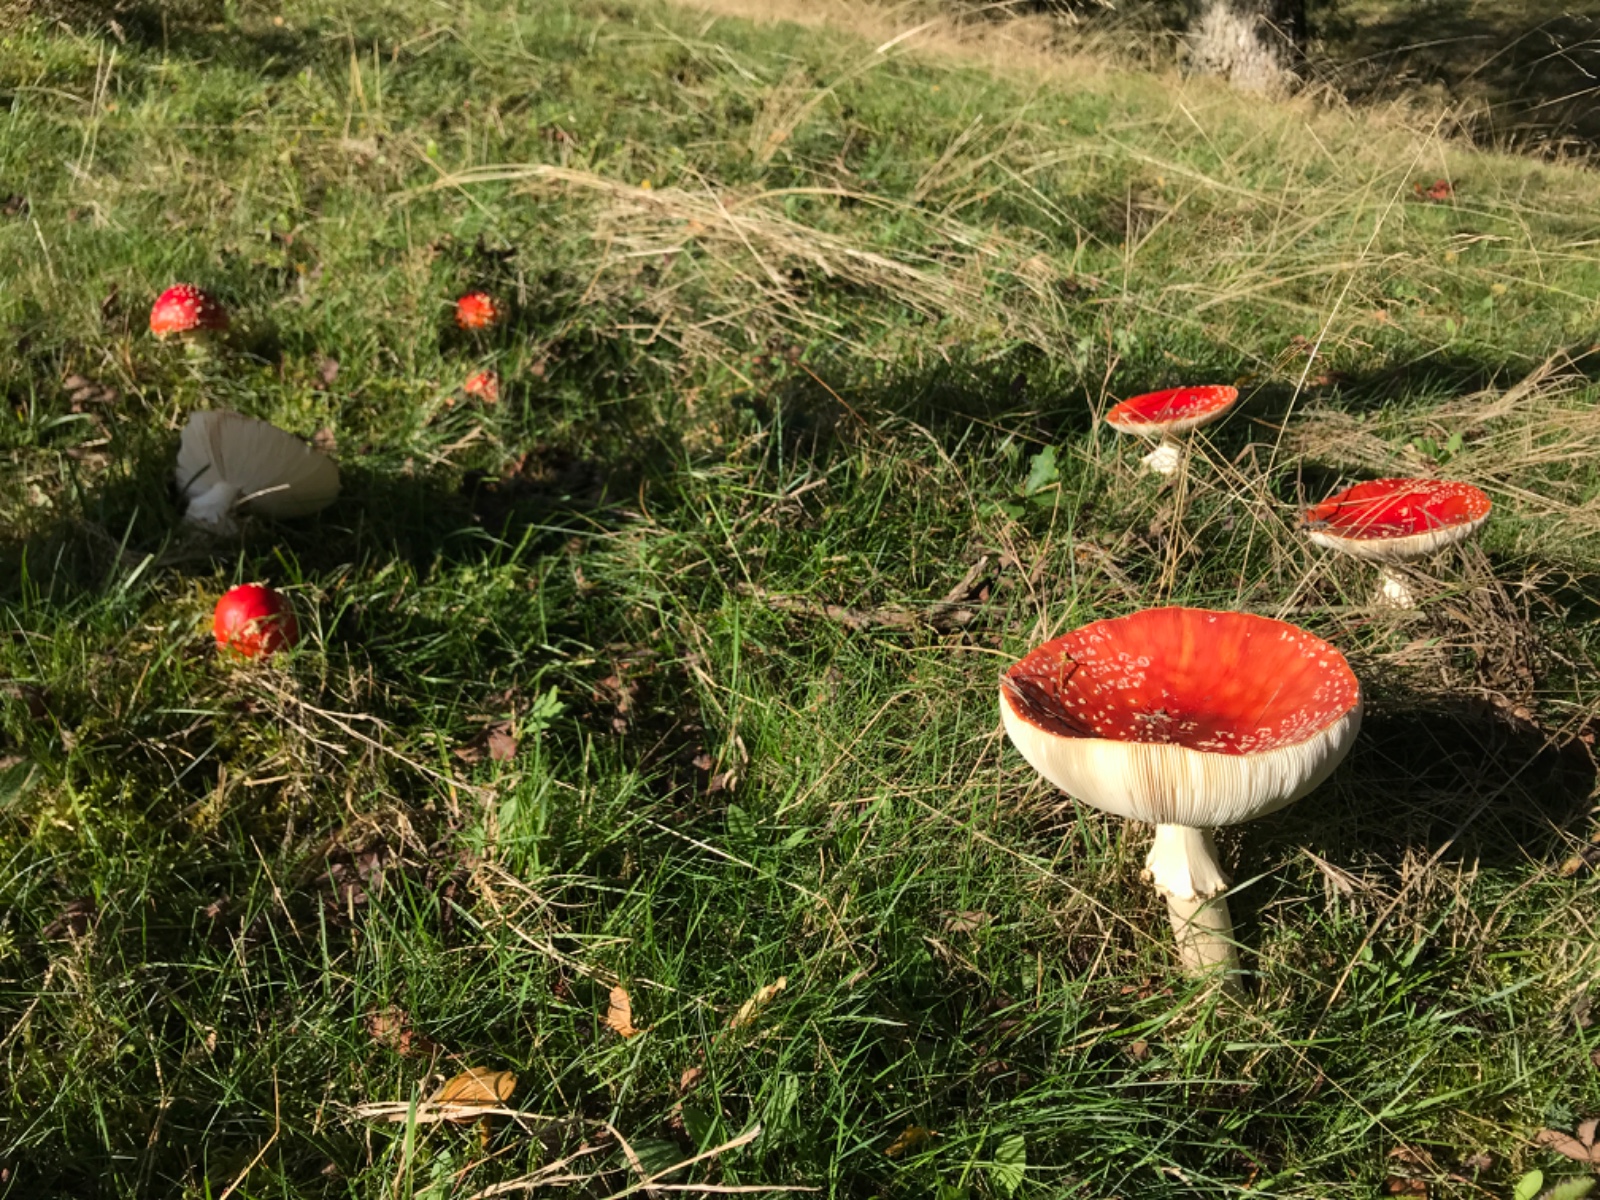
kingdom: Fungi
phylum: Basidiomycota
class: Agaricomycetes
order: Agaricales
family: Amanitaceae
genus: Amanita
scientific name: Amanita muscaria
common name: rød fluesvamp
